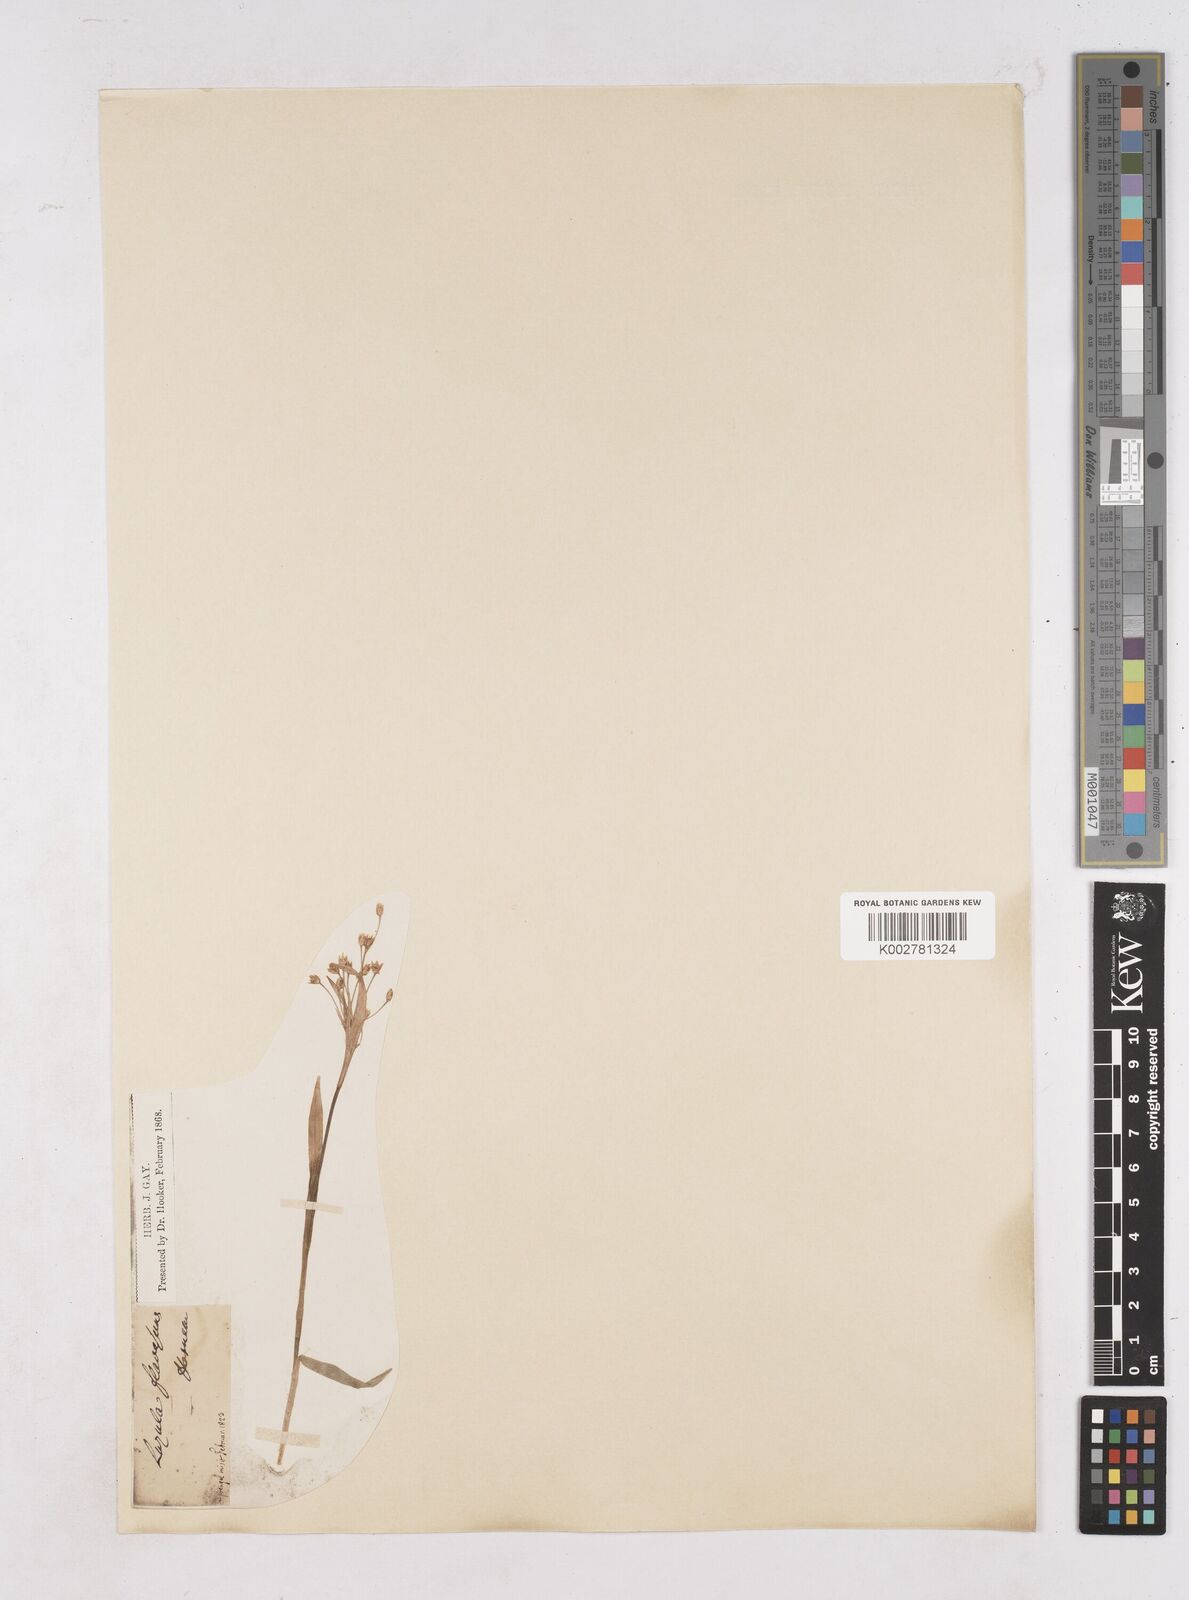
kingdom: Plantae
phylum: Tracheophyta
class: Liliopsida
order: Poales
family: Juncaceae
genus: Luzula
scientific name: Luzula luzulina
